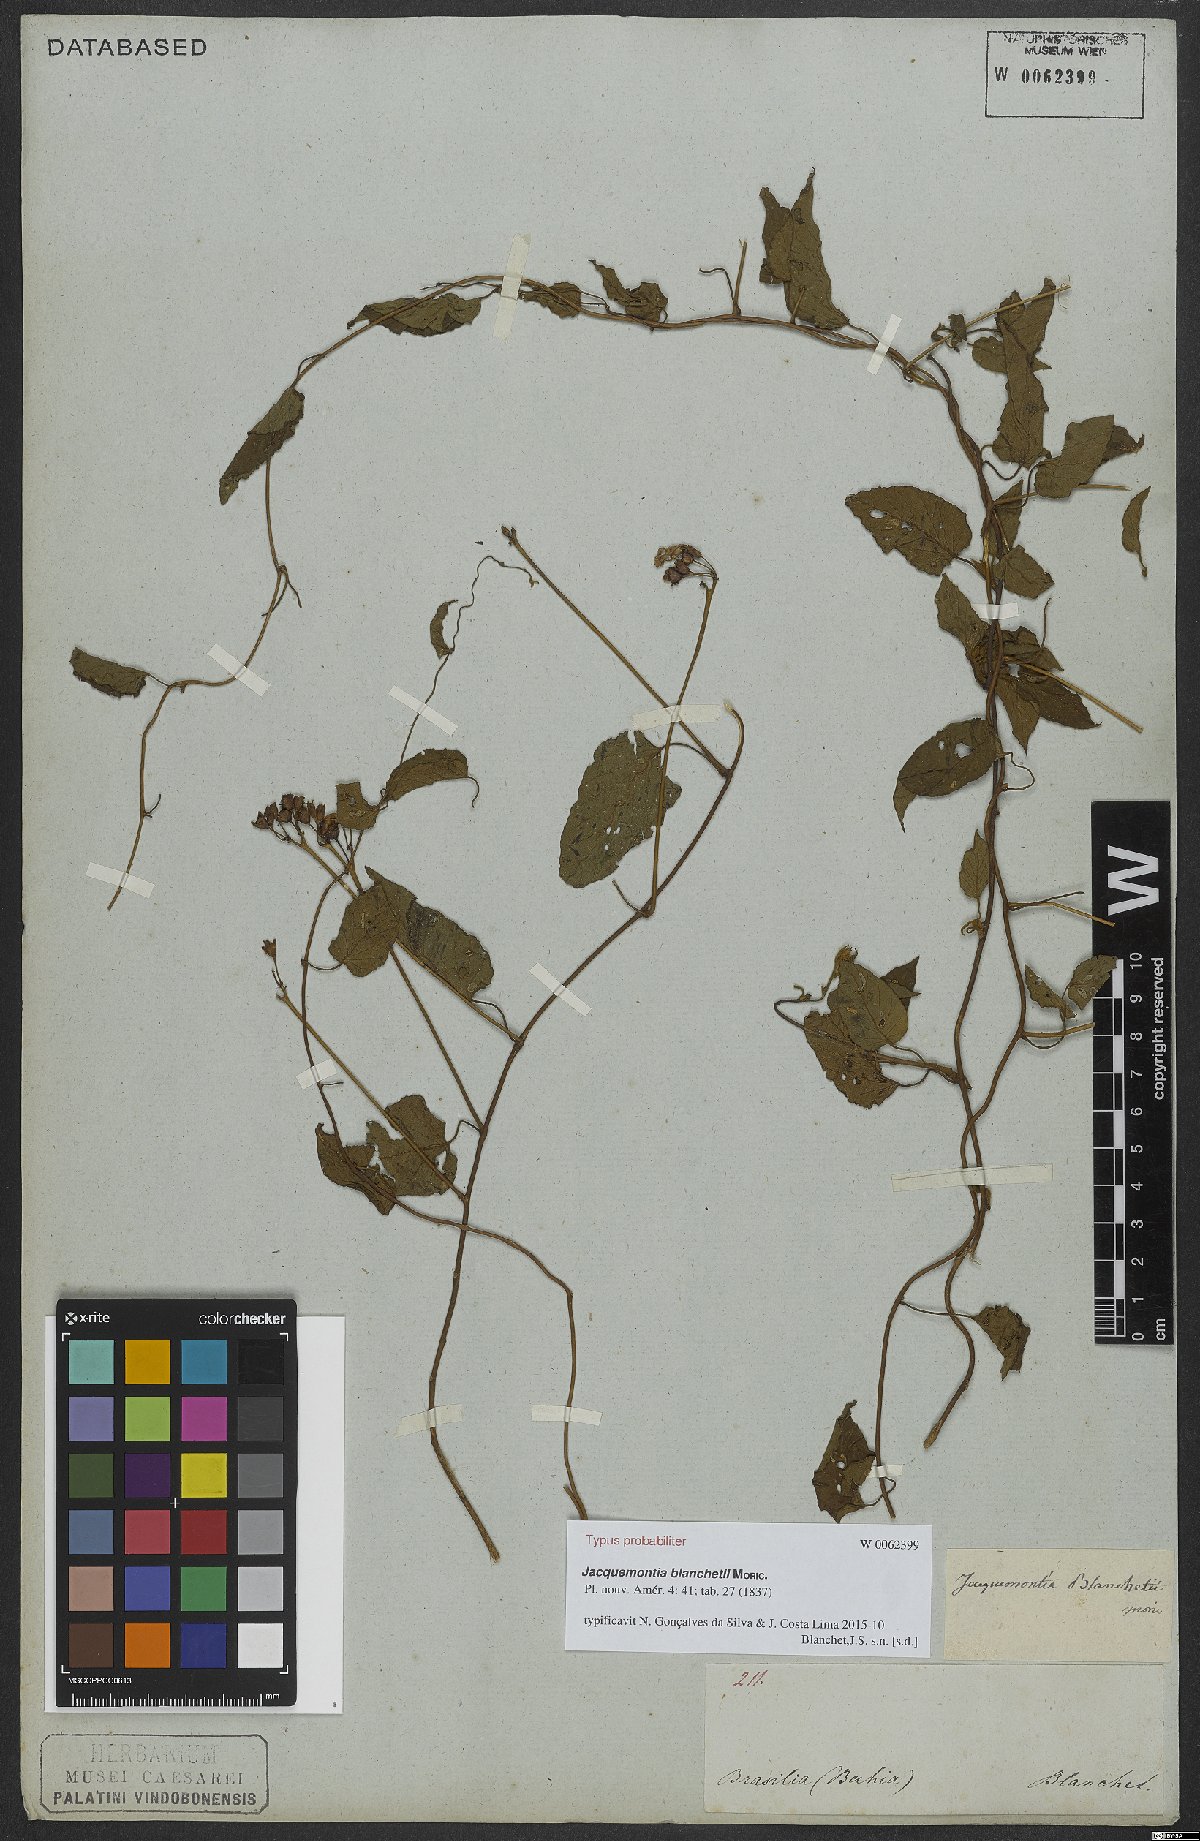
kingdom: Plantae
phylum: Tracheophyta
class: Magnoliopsida
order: Solanales
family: Convolvulaceae
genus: Jacquemontia
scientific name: Jacquemontia blanchetii
